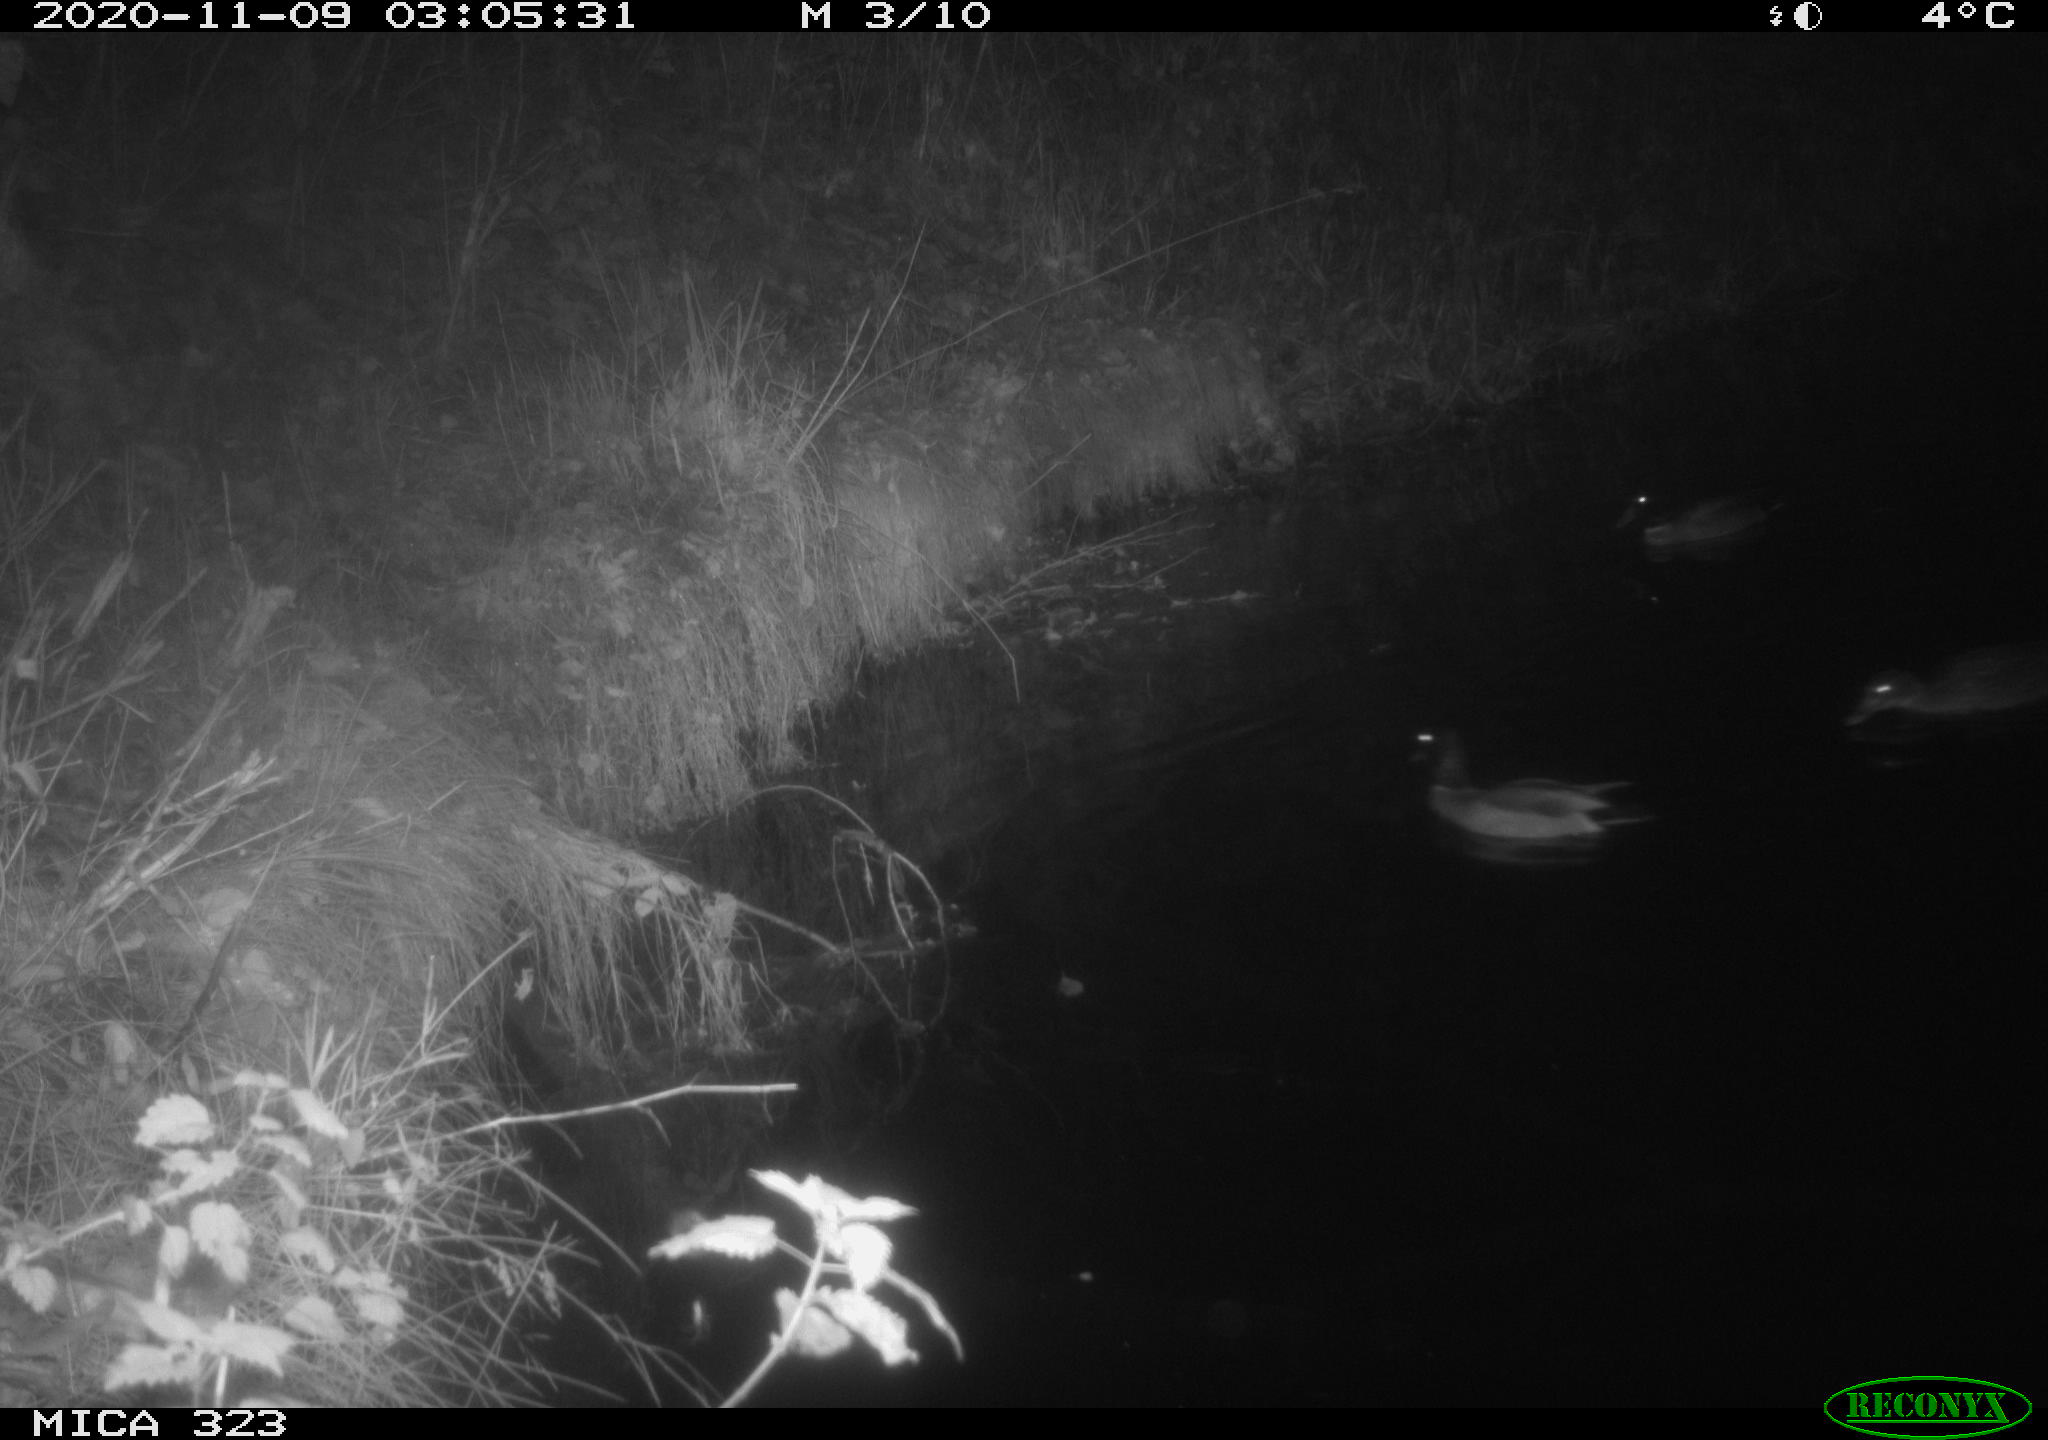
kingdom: Animalia
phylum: Chordata
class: Aves
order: Anseriformes
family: Anatidae
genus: Anas
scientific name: Anas platyrhynchos
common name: Mallard
